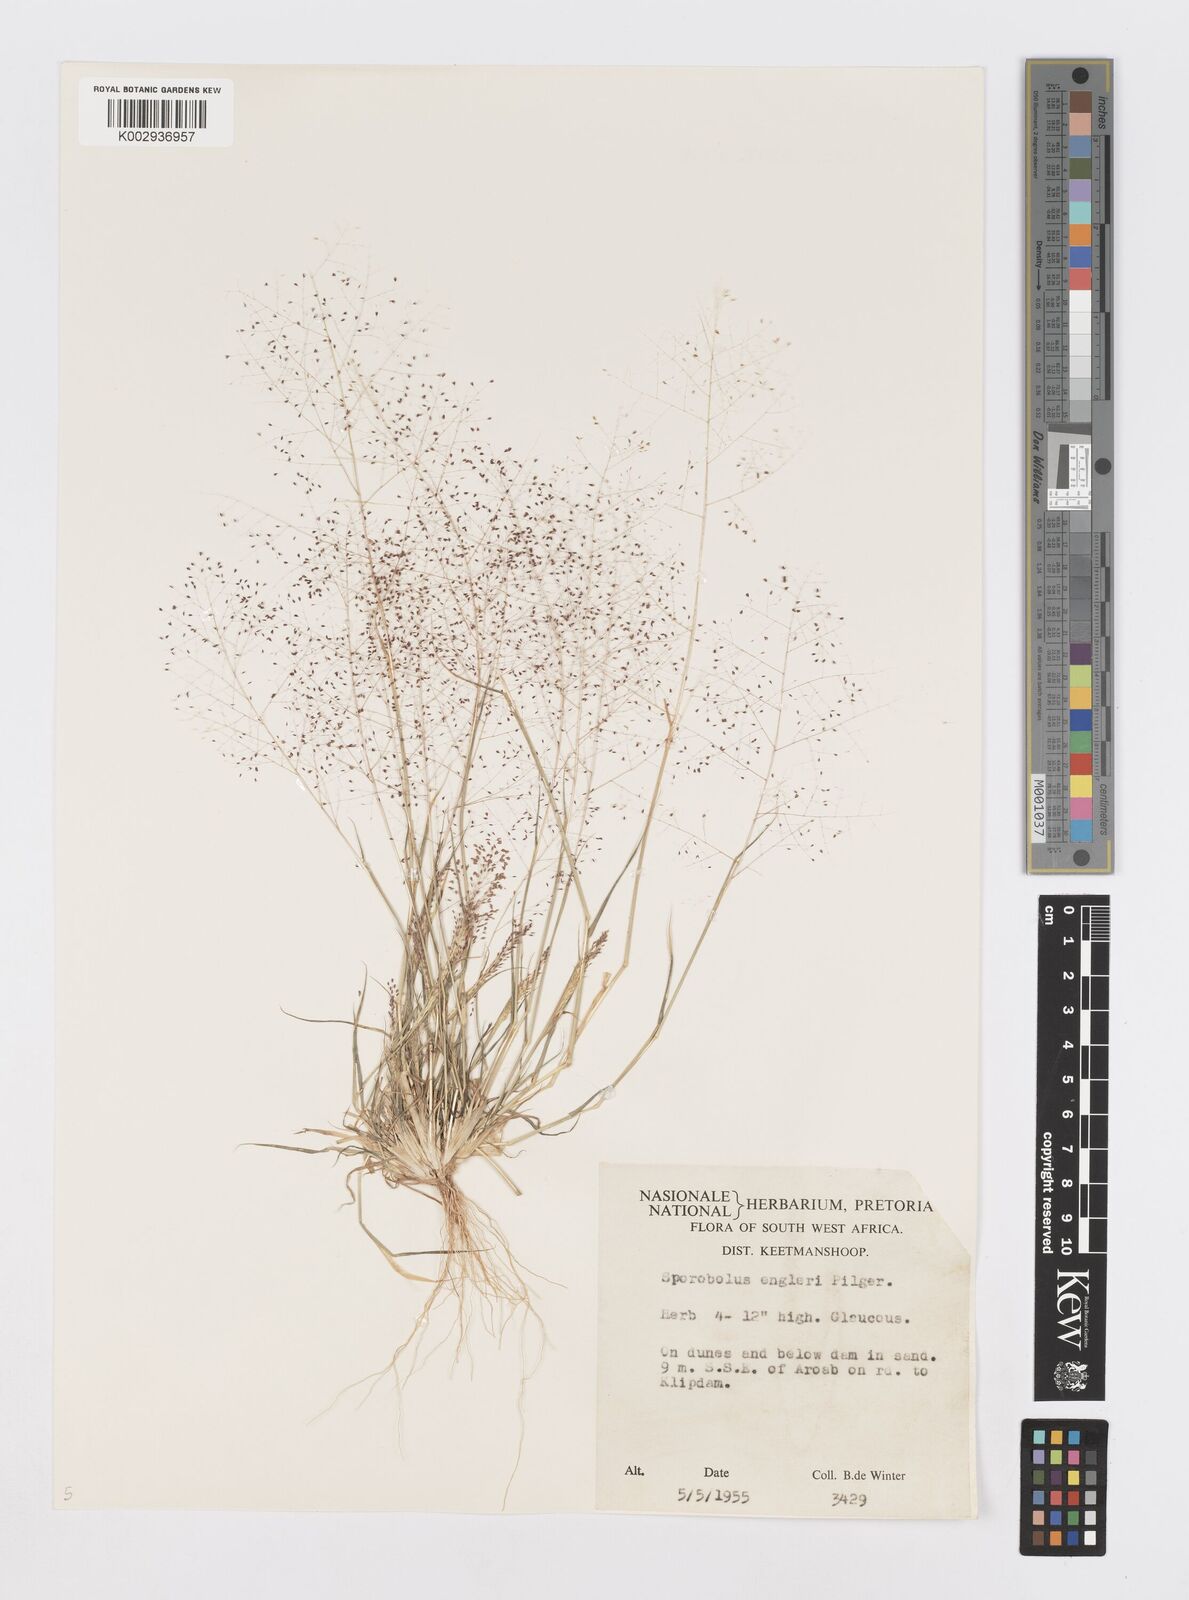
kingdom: Plantae
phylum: Tracheophyta
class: Liliopsida
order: Poales
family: Poaceae
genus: Sporobolus
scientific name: Sporobolus engleri
